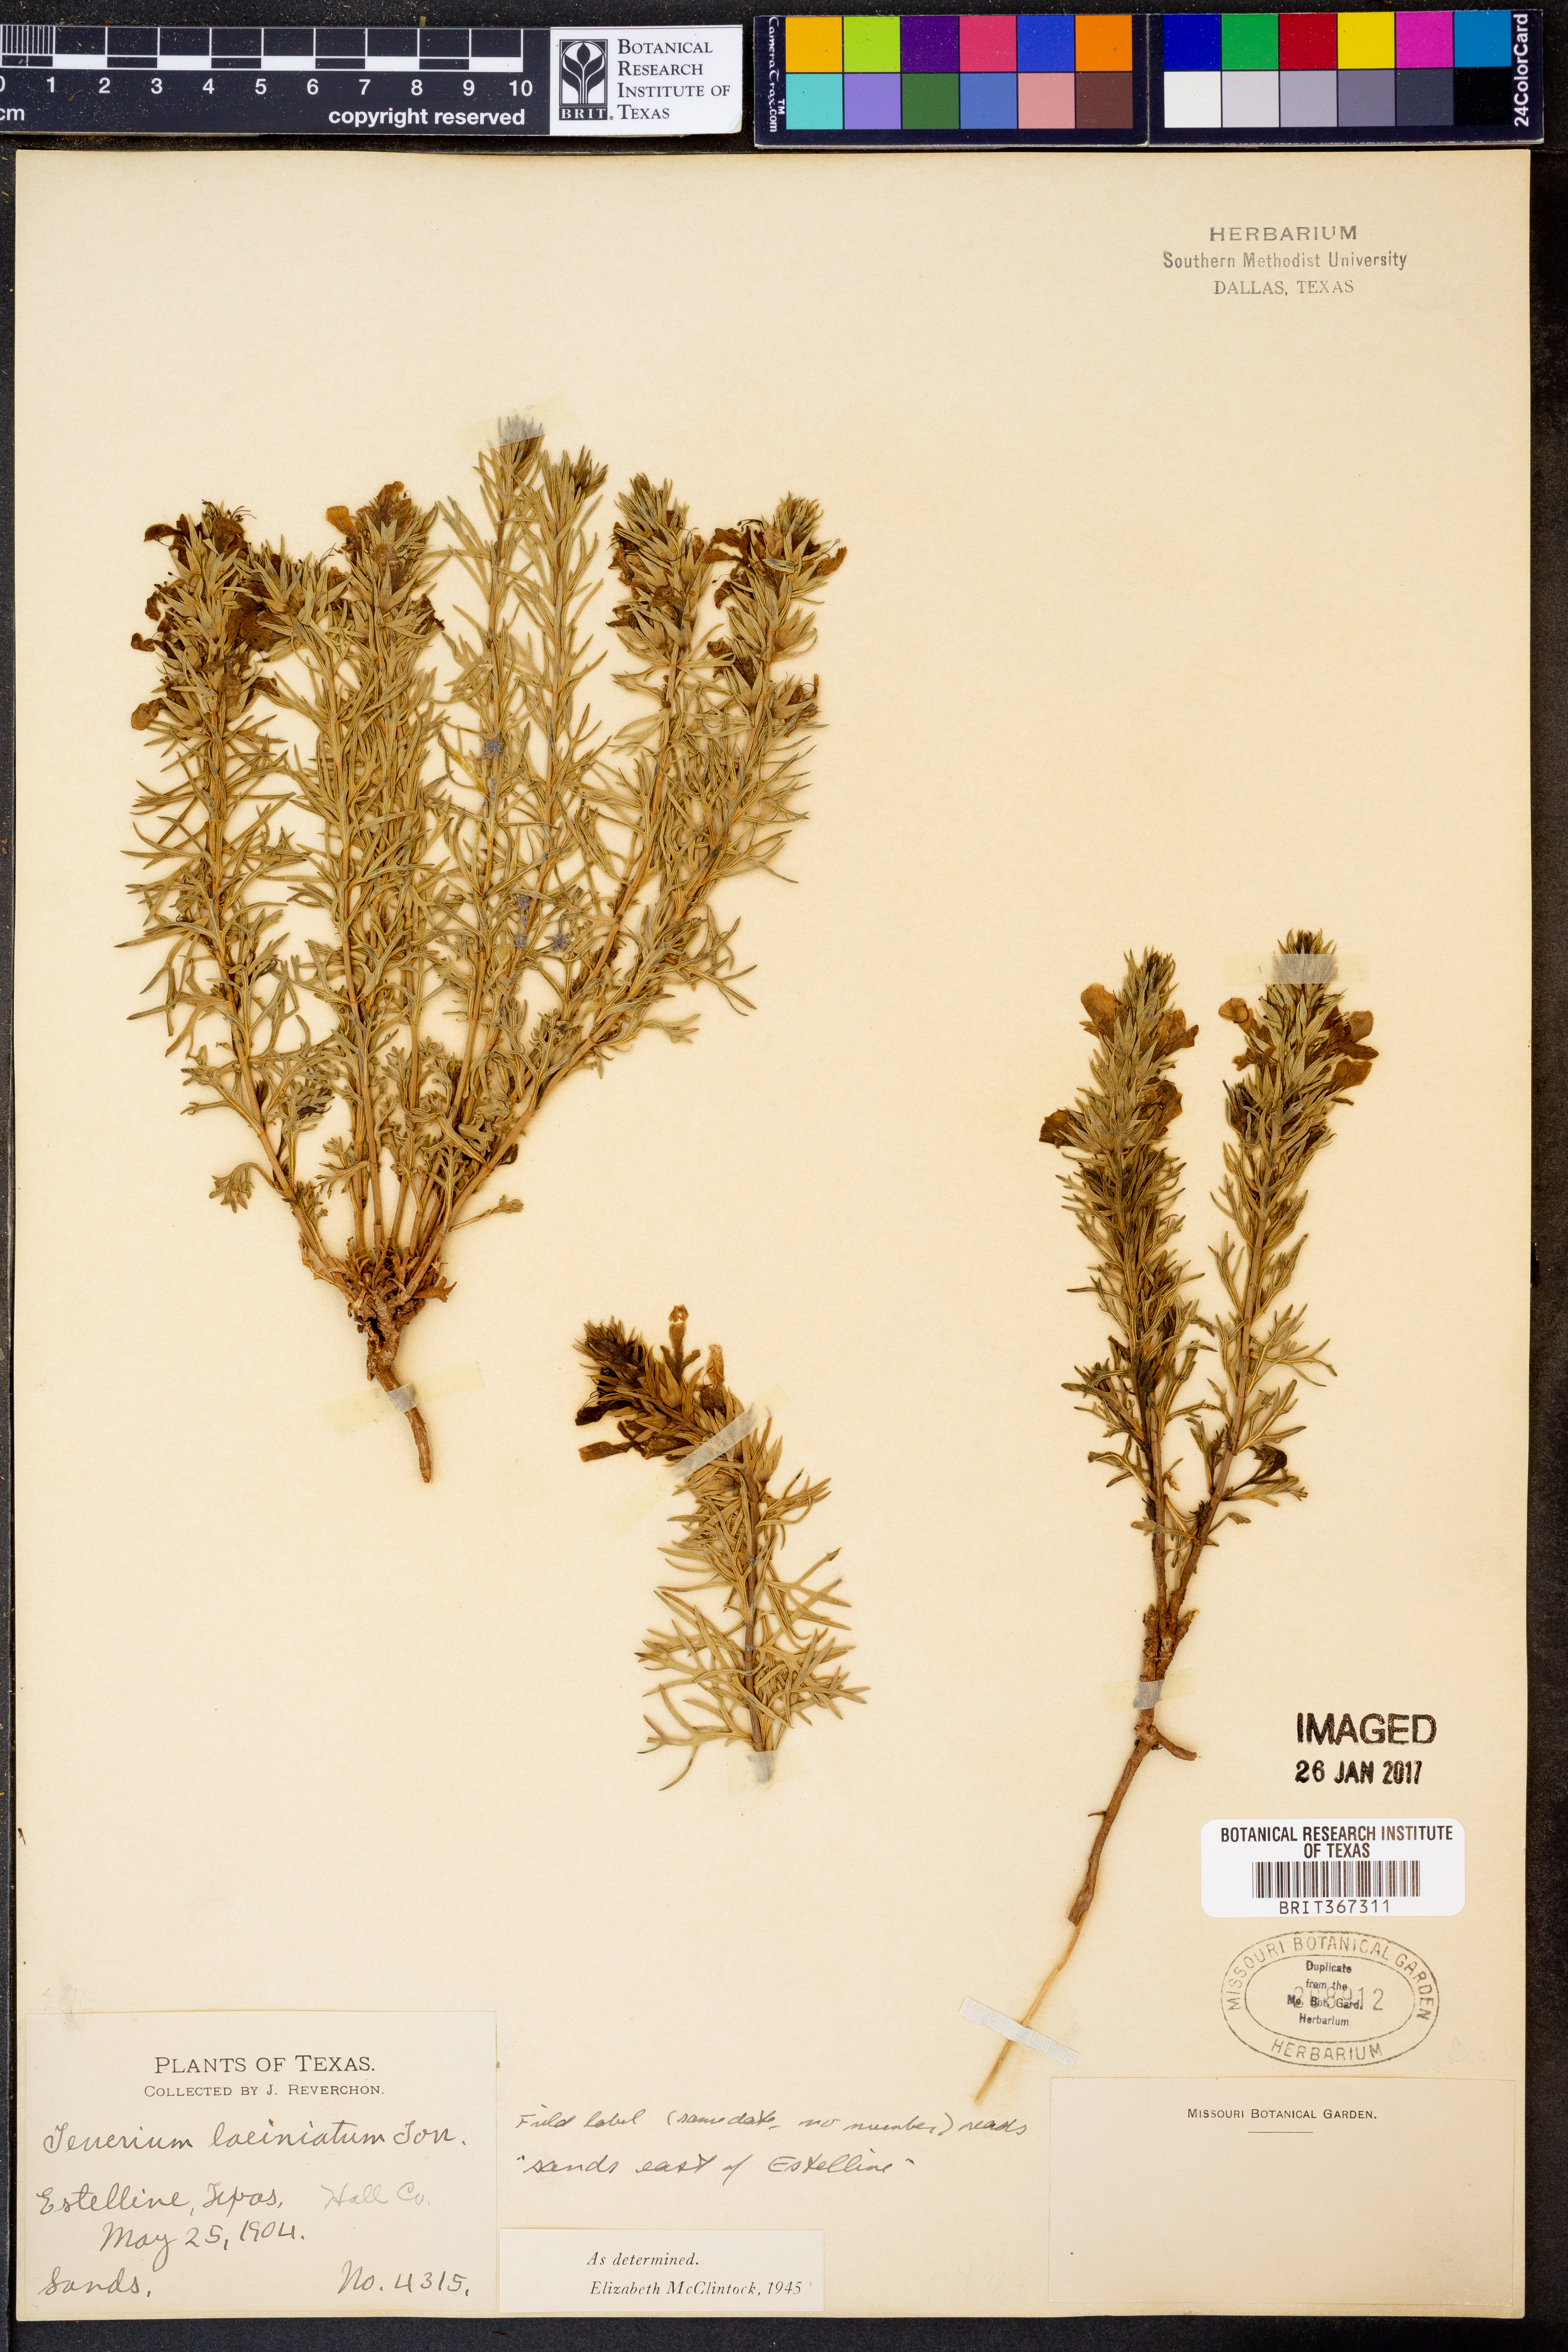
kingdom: Plantae
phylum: Tracheophyta
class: Magnoliopsida
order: Lamiales
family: Lamiaceae
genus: Teucrium
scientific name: Teucrium laciniatum
